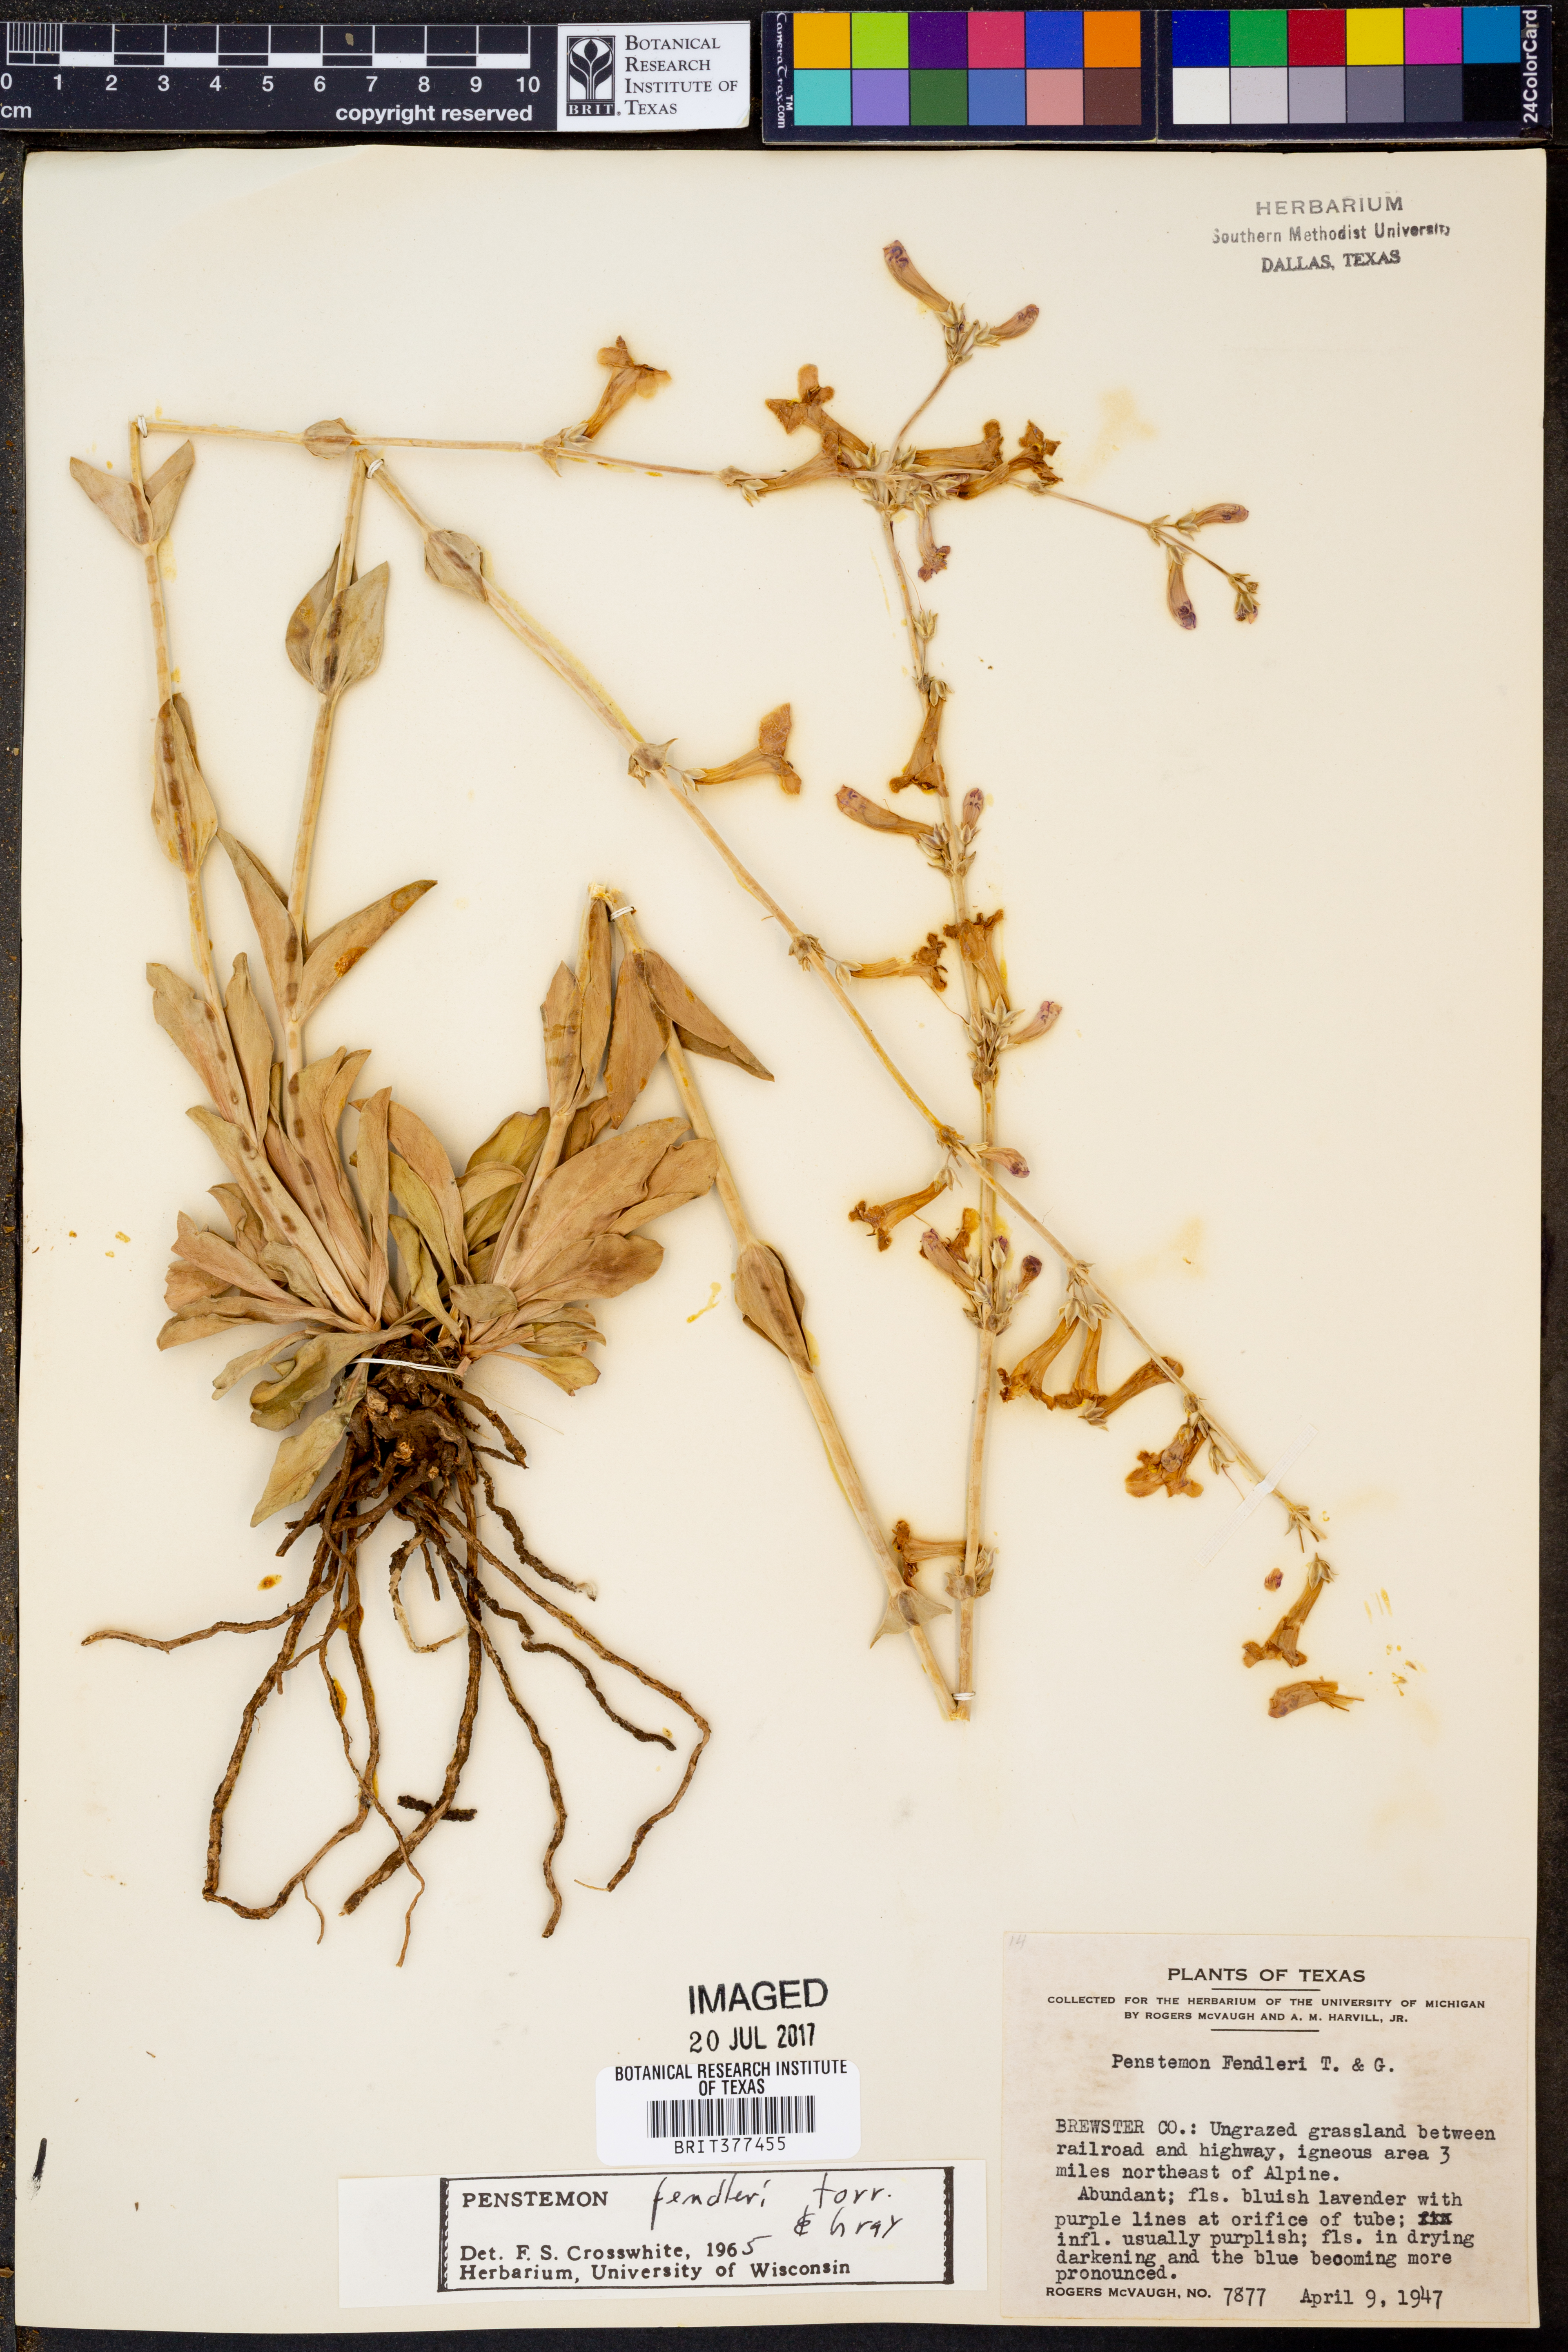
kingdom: Plantae
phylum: Tracheophyta
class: Magnoliopsida
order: Lamiales
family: Plantaginaceae
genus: Penstemon
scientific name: Penstemon fendleri
